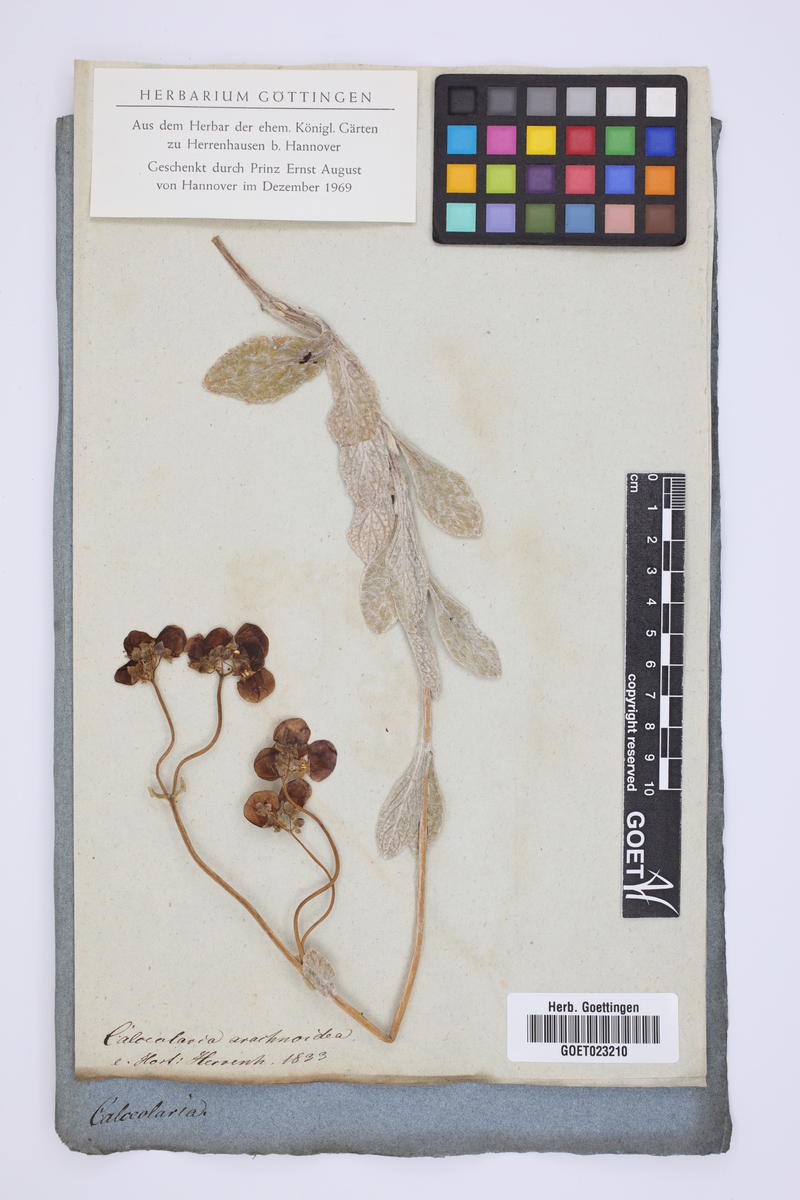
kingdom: Plantae
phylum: Tracheophyta
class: Magnoliopsida
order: Lamiales
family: Calceolariaceae
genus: Calceolaria
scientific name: Calceolaria arachnoidea
